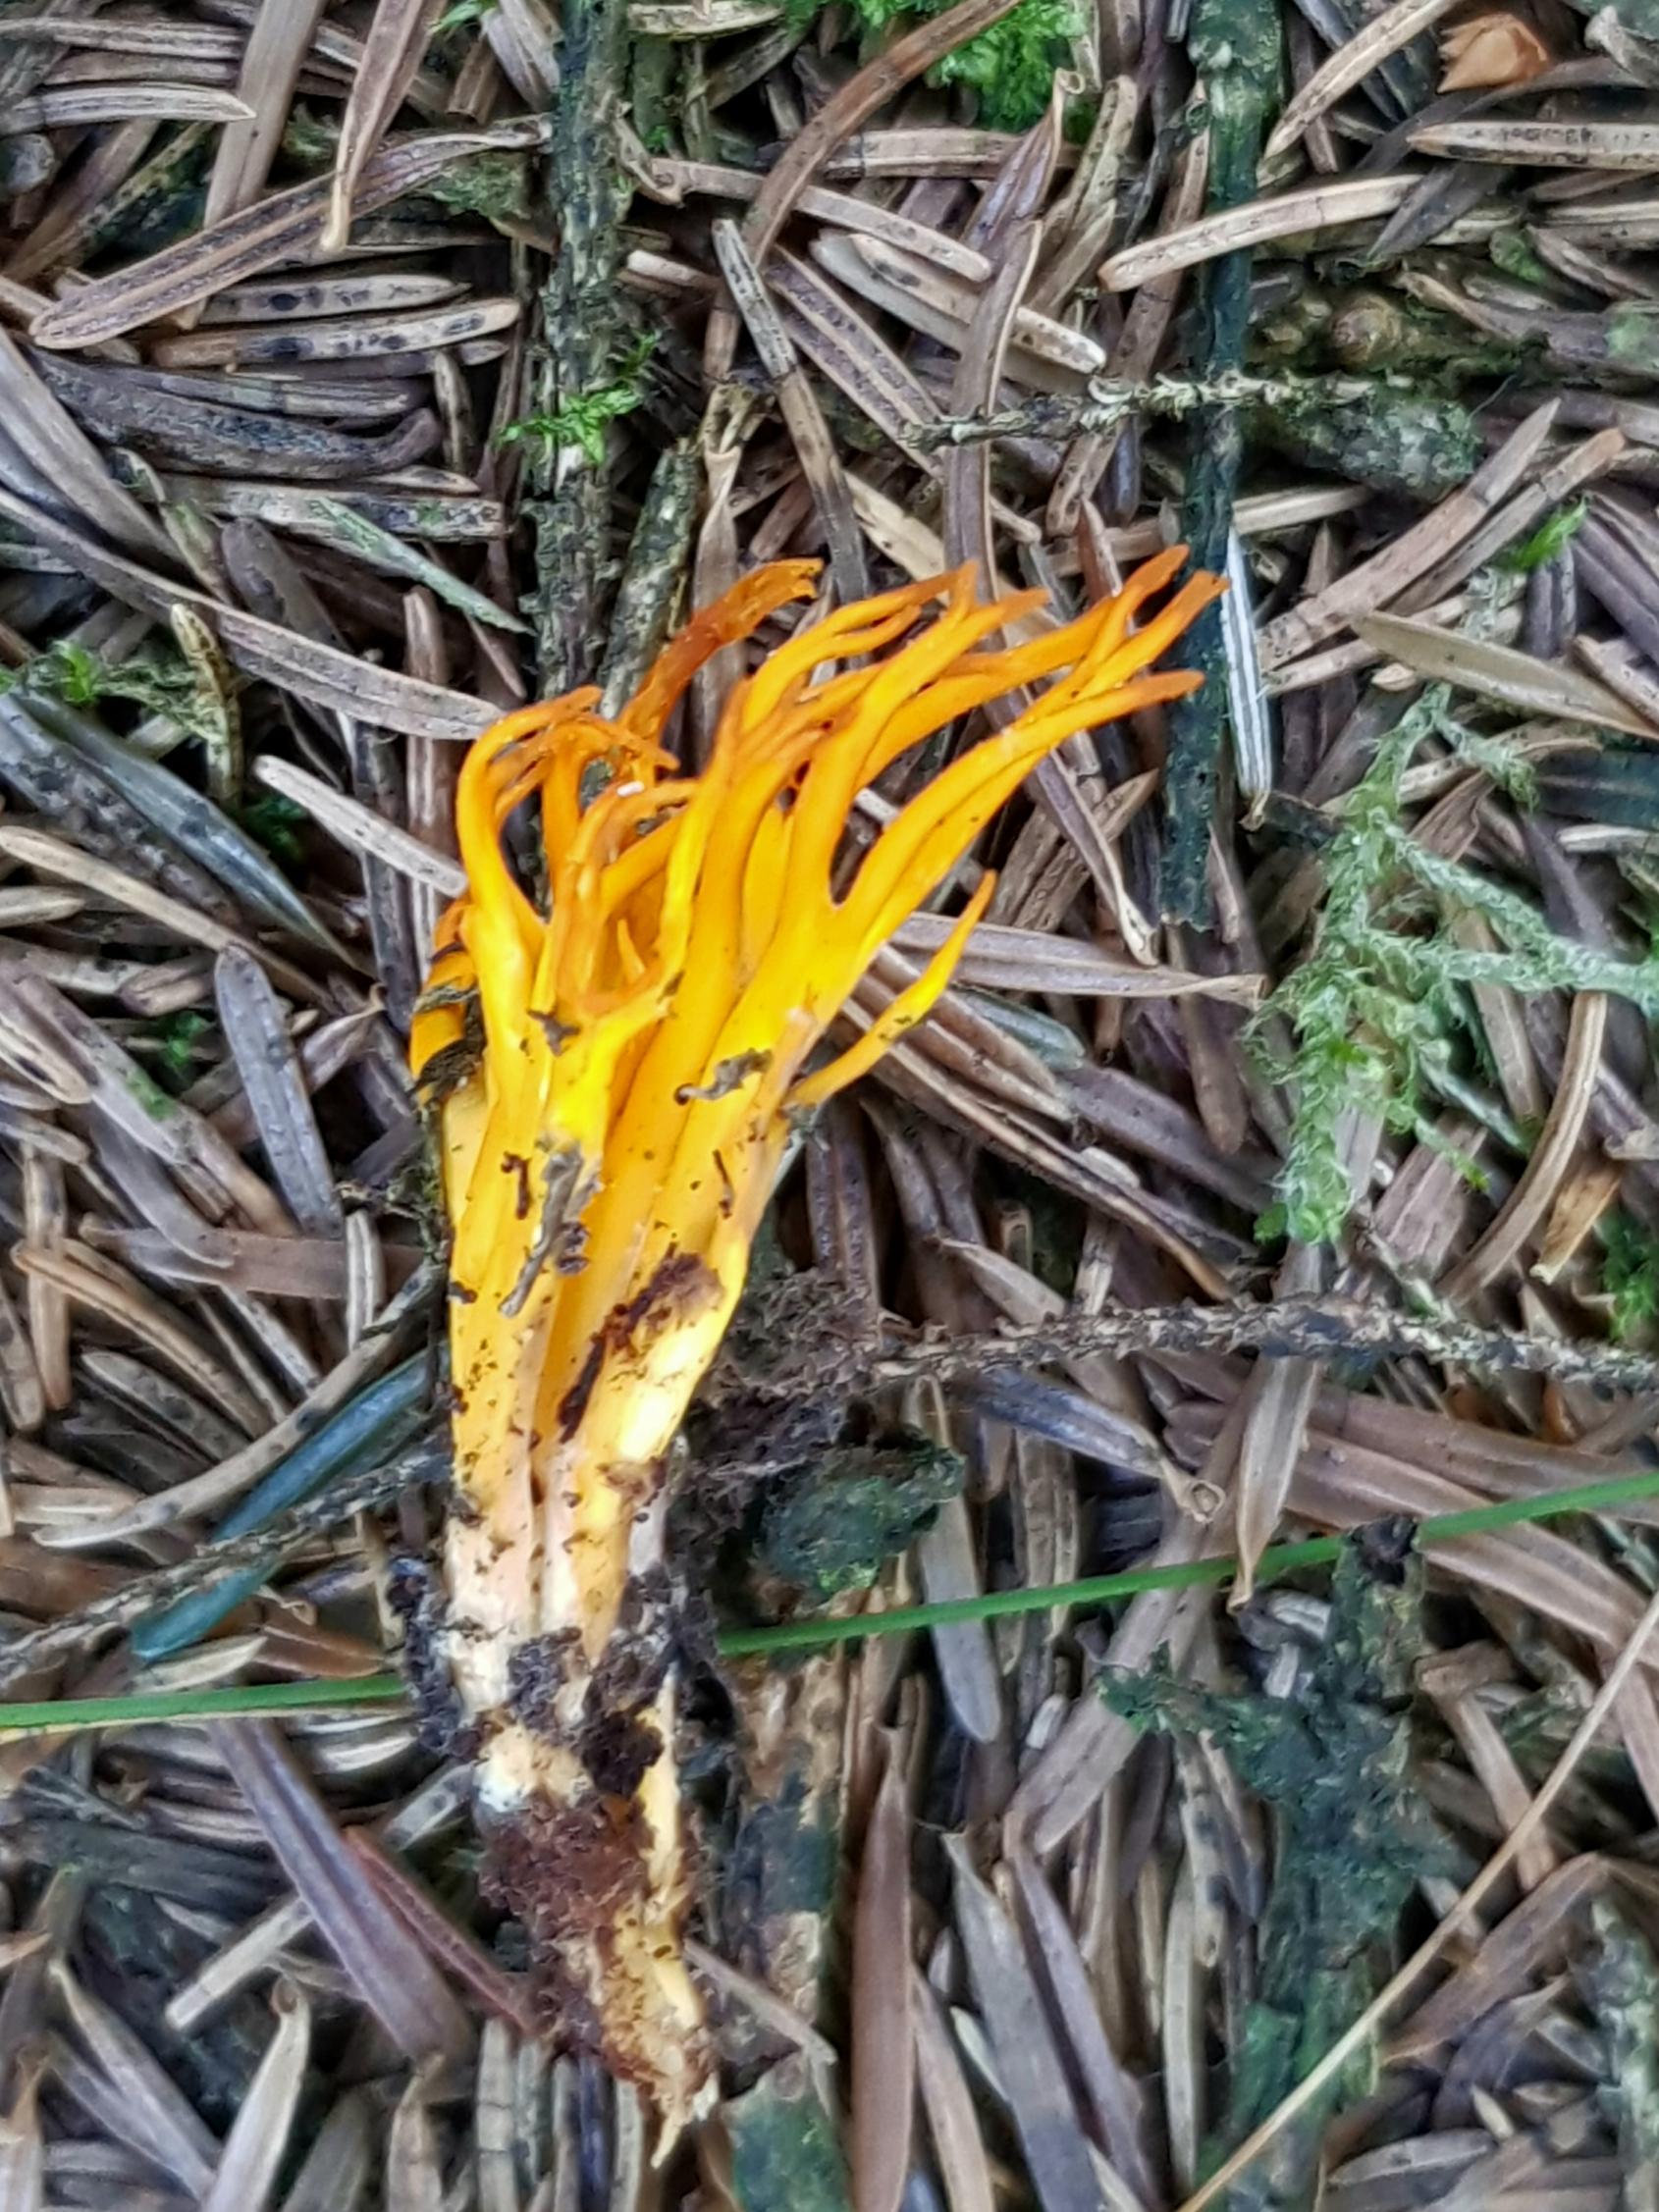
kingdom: Fungi
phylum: Basidiomycota
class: Dacrymycetes
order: Dacrymycetales
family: Dacrymycetaceae
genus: Calocera
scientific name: Calocera viscosa
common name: almindelig guldgaffel
